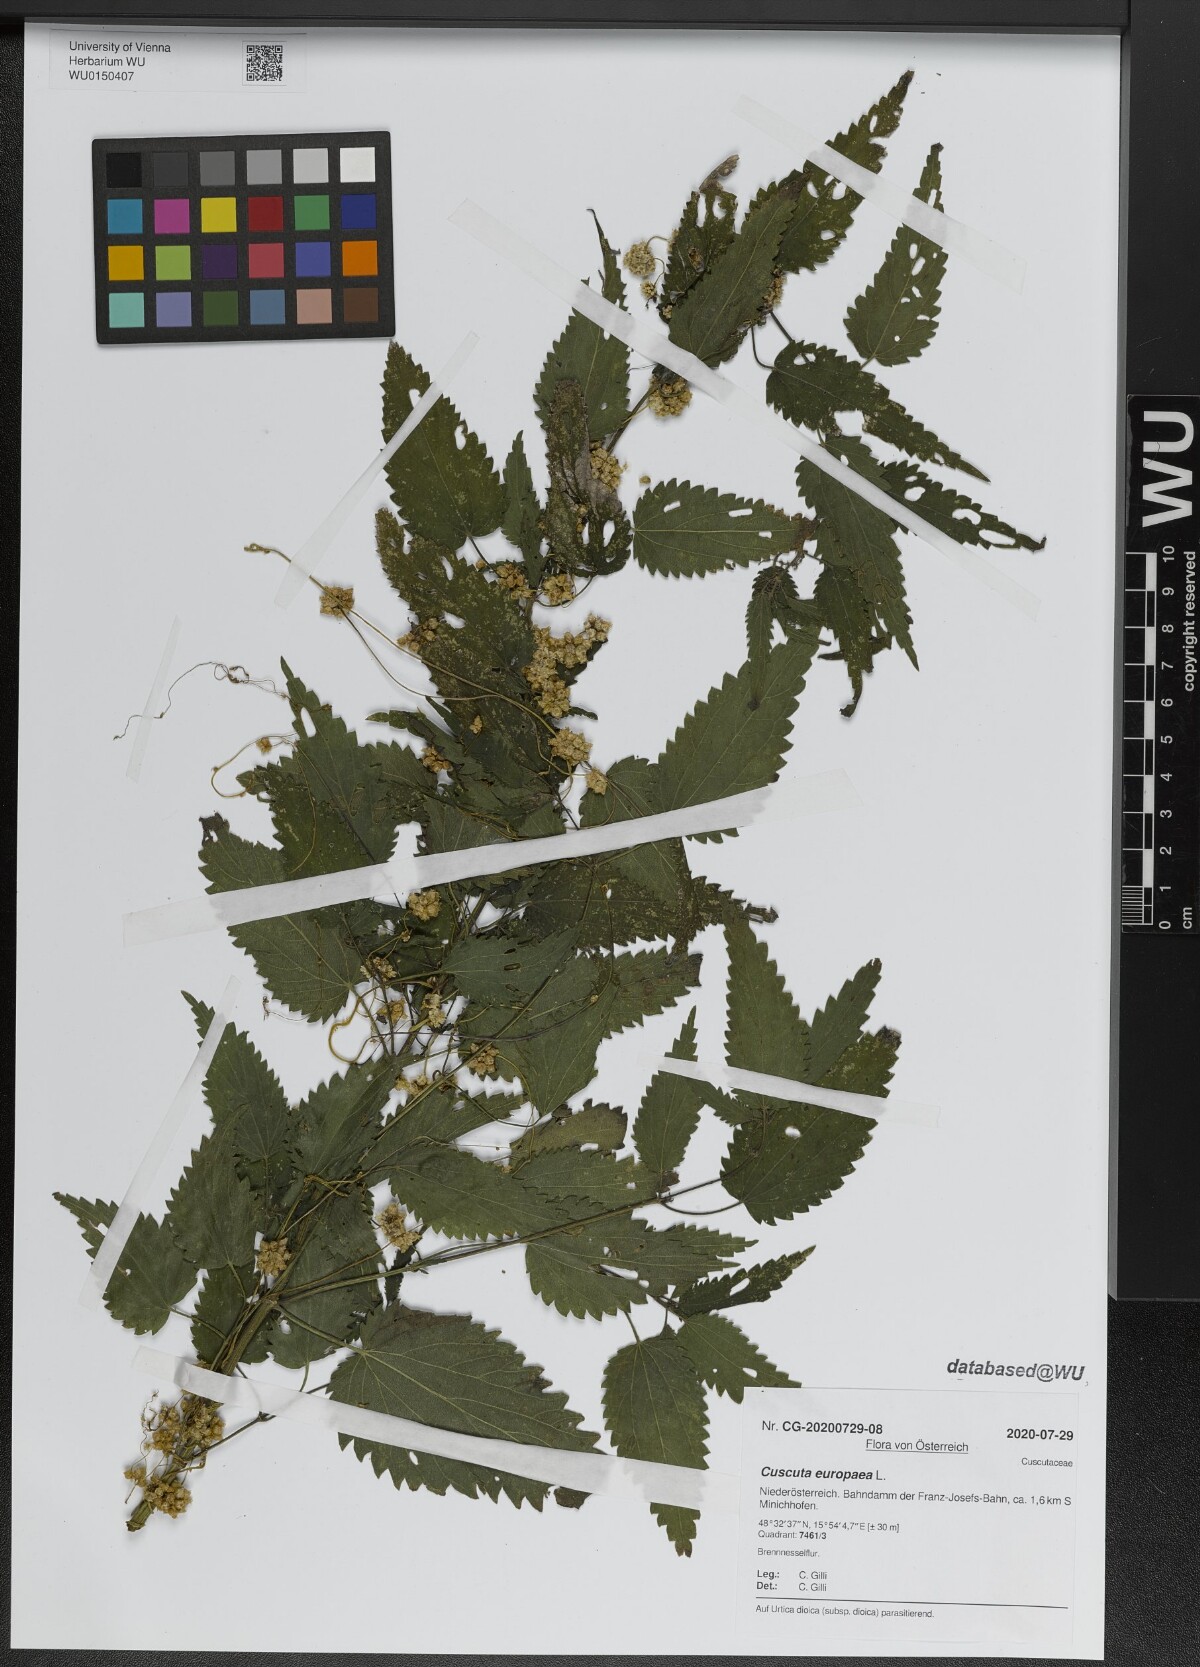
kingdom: Plantae
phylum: Tracheophyta
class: Magnoliopsida
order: Solanales
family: Convolvulaceae
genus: Cuscuta
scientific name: Cuscuta europaea
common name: Greater dodder
